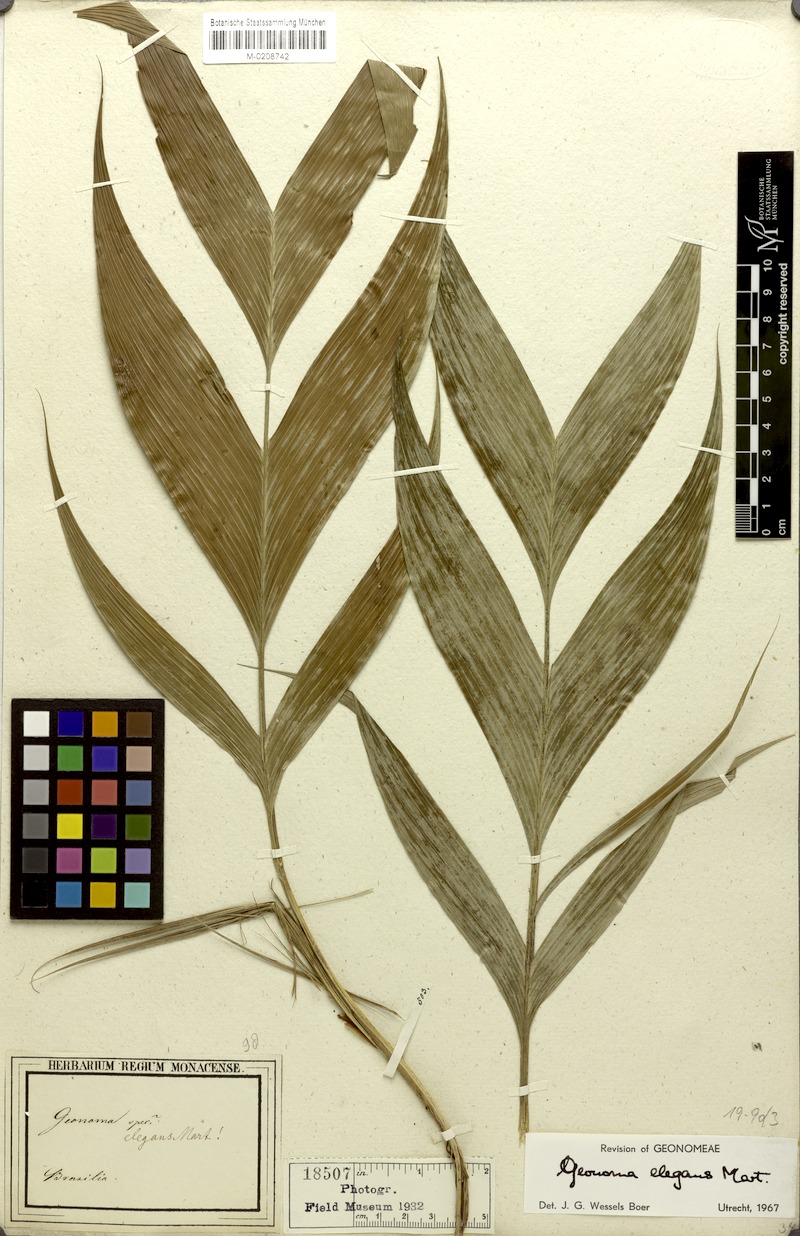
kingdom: Plantae
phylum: Tracheophyta
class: Liliopsida
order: Arecales
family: Arecaceae
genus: Geonoma
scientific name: Geonoma elegans
